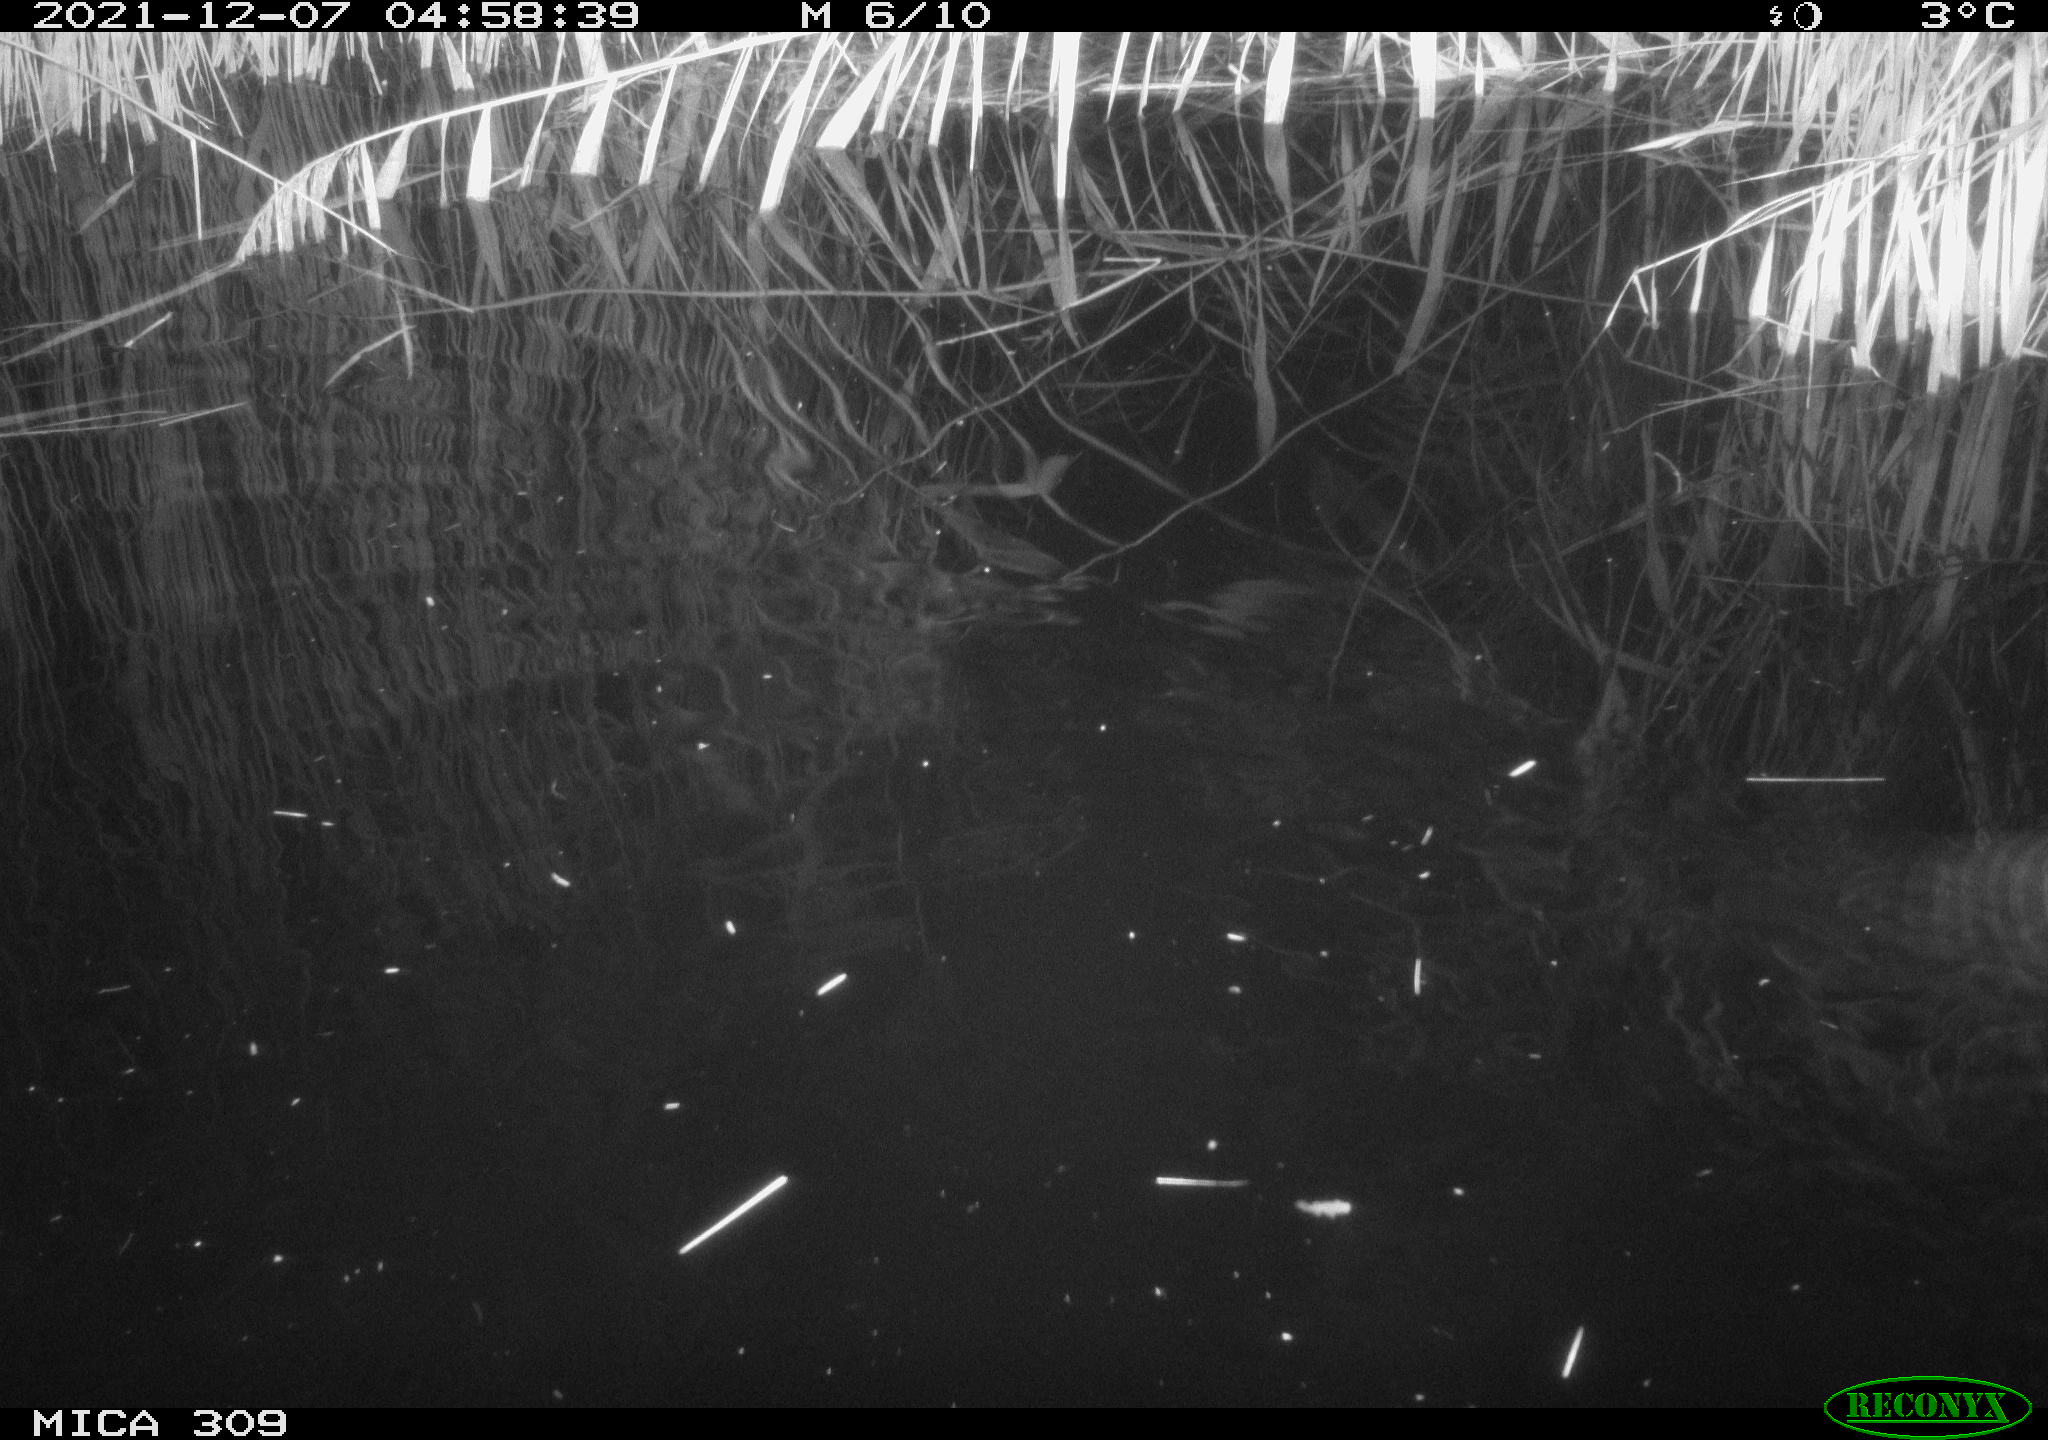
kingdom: Animalia
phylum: Chordata
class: Mammalia
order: Rodentia
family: Muridae
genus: Rattus
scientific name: Rattus norvegicus
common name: Brown rat
